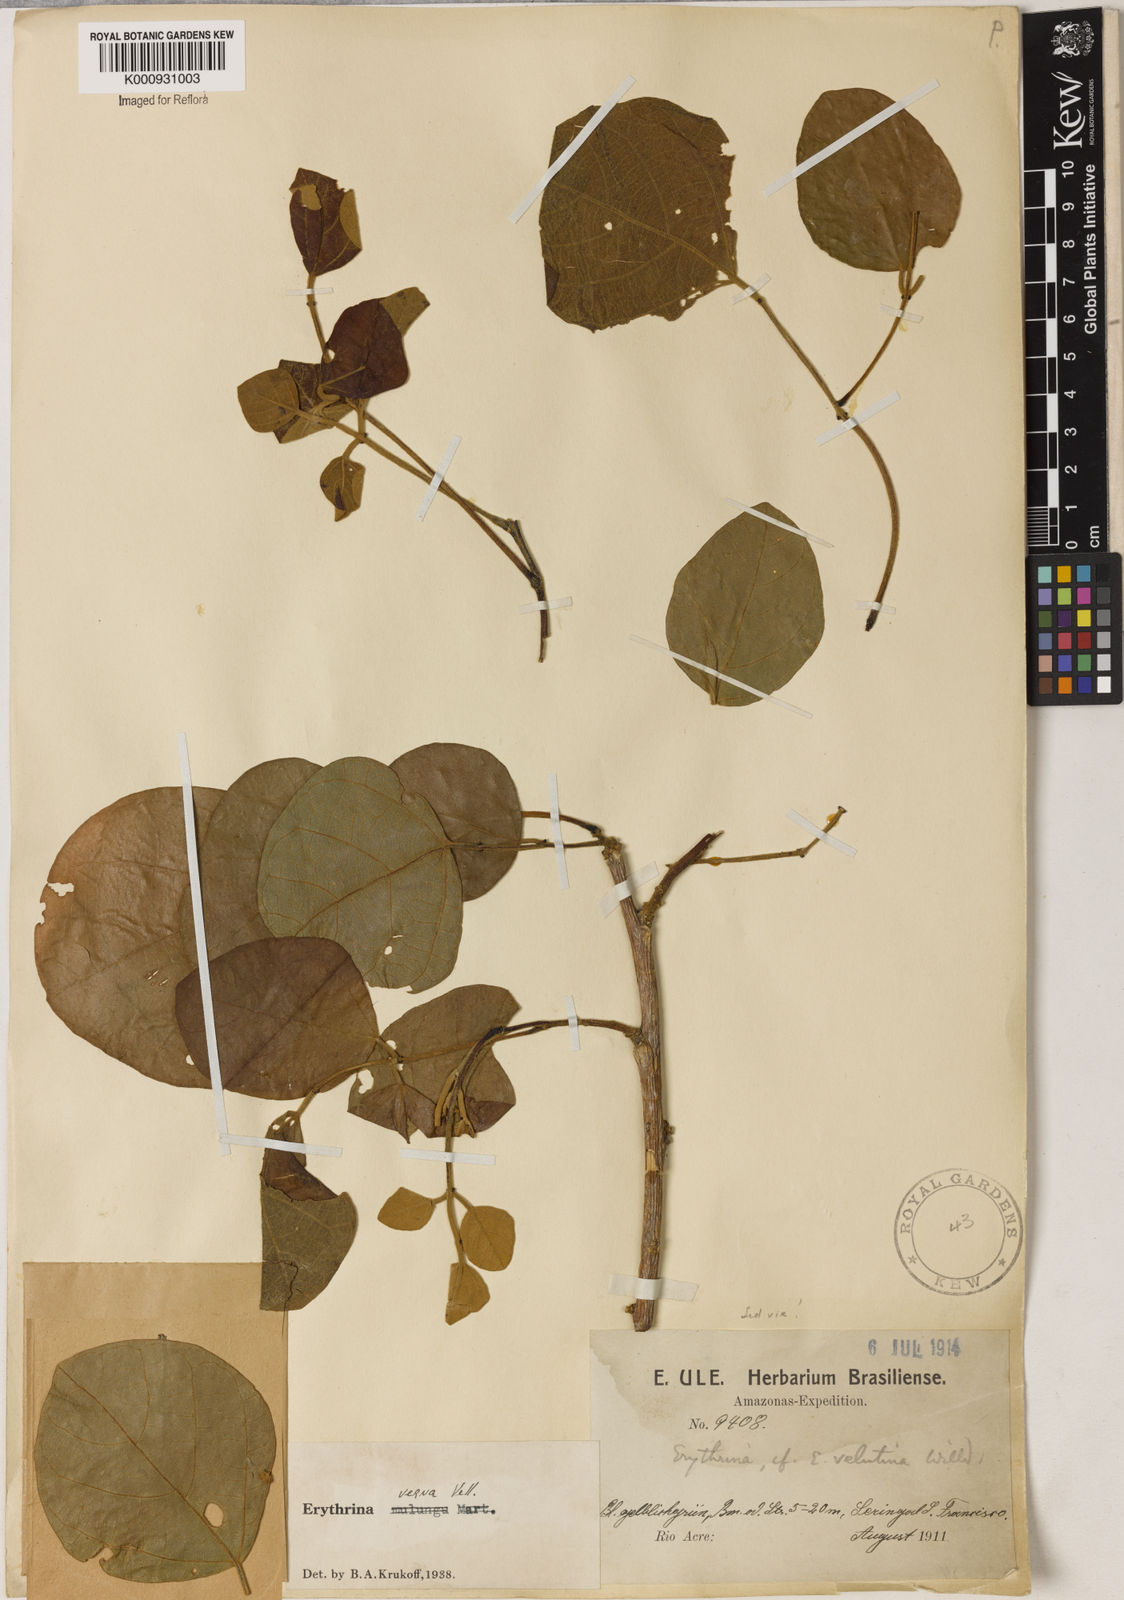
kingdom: Plantae
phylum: Tracheophyta
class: Magnoliopsida
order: Fabales
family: Fabaceae
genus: Erythrina
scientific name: Erythrina verna
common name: Mulungú
